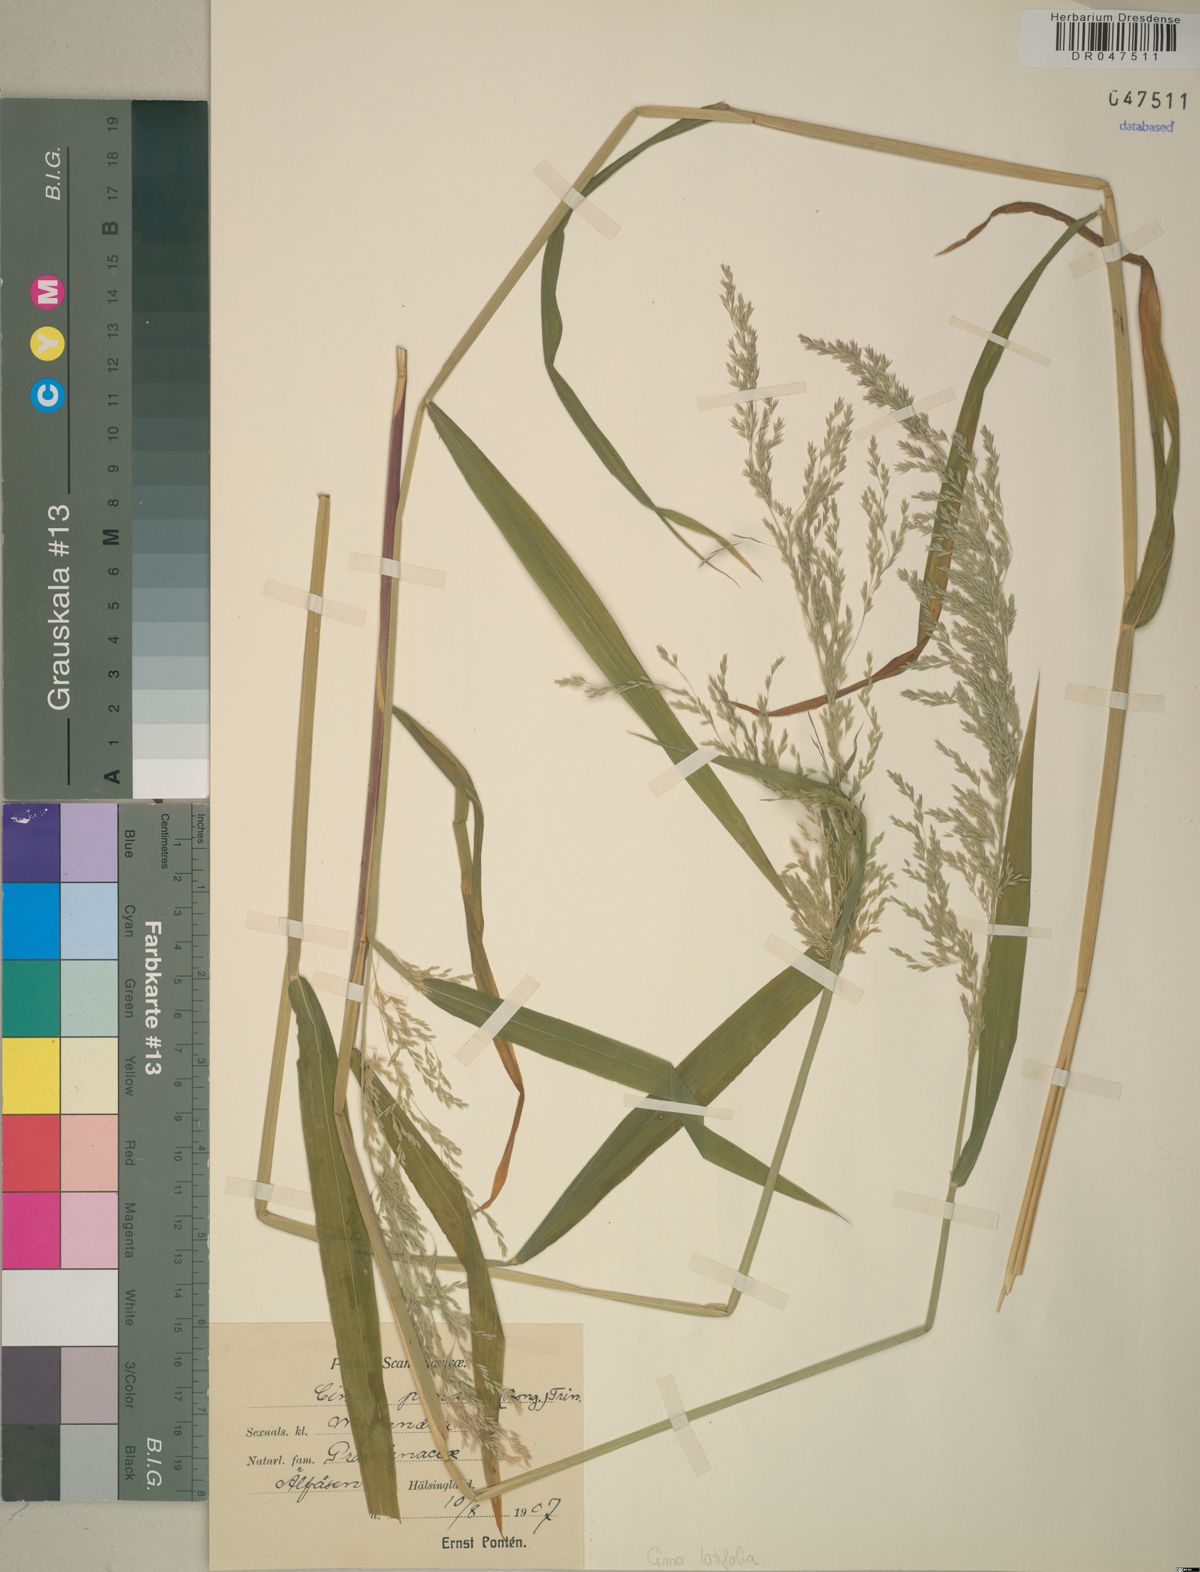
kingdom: Plantae
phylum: Tracheophyta
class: Liliopsida
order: Poales
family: Poaceae
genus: Cinna
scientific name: Cinna latifolia
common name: Drooping woodreed
